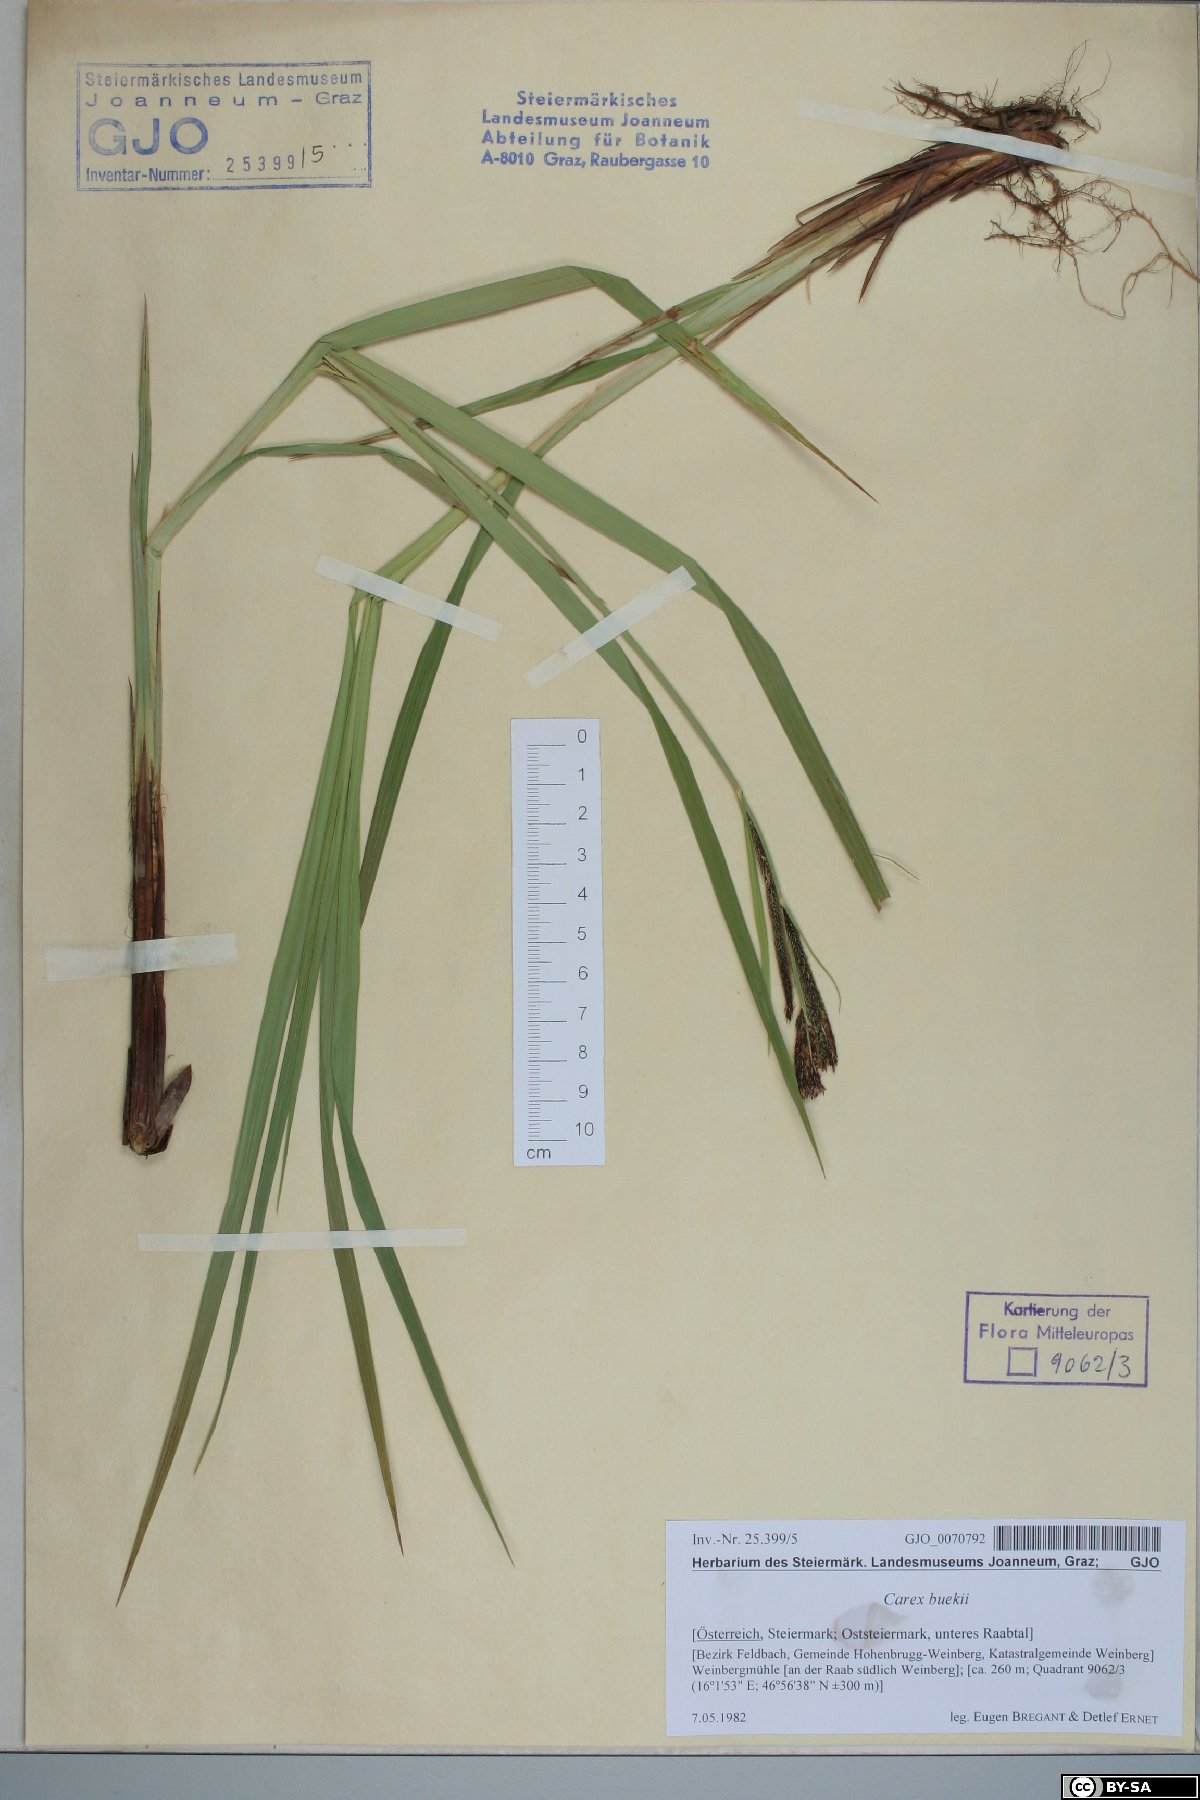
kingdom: Plantae
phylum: Tracheophyta
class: Liliopsida
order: Poales
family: Cyperaceae
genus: Carex
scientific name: Carex buekii
